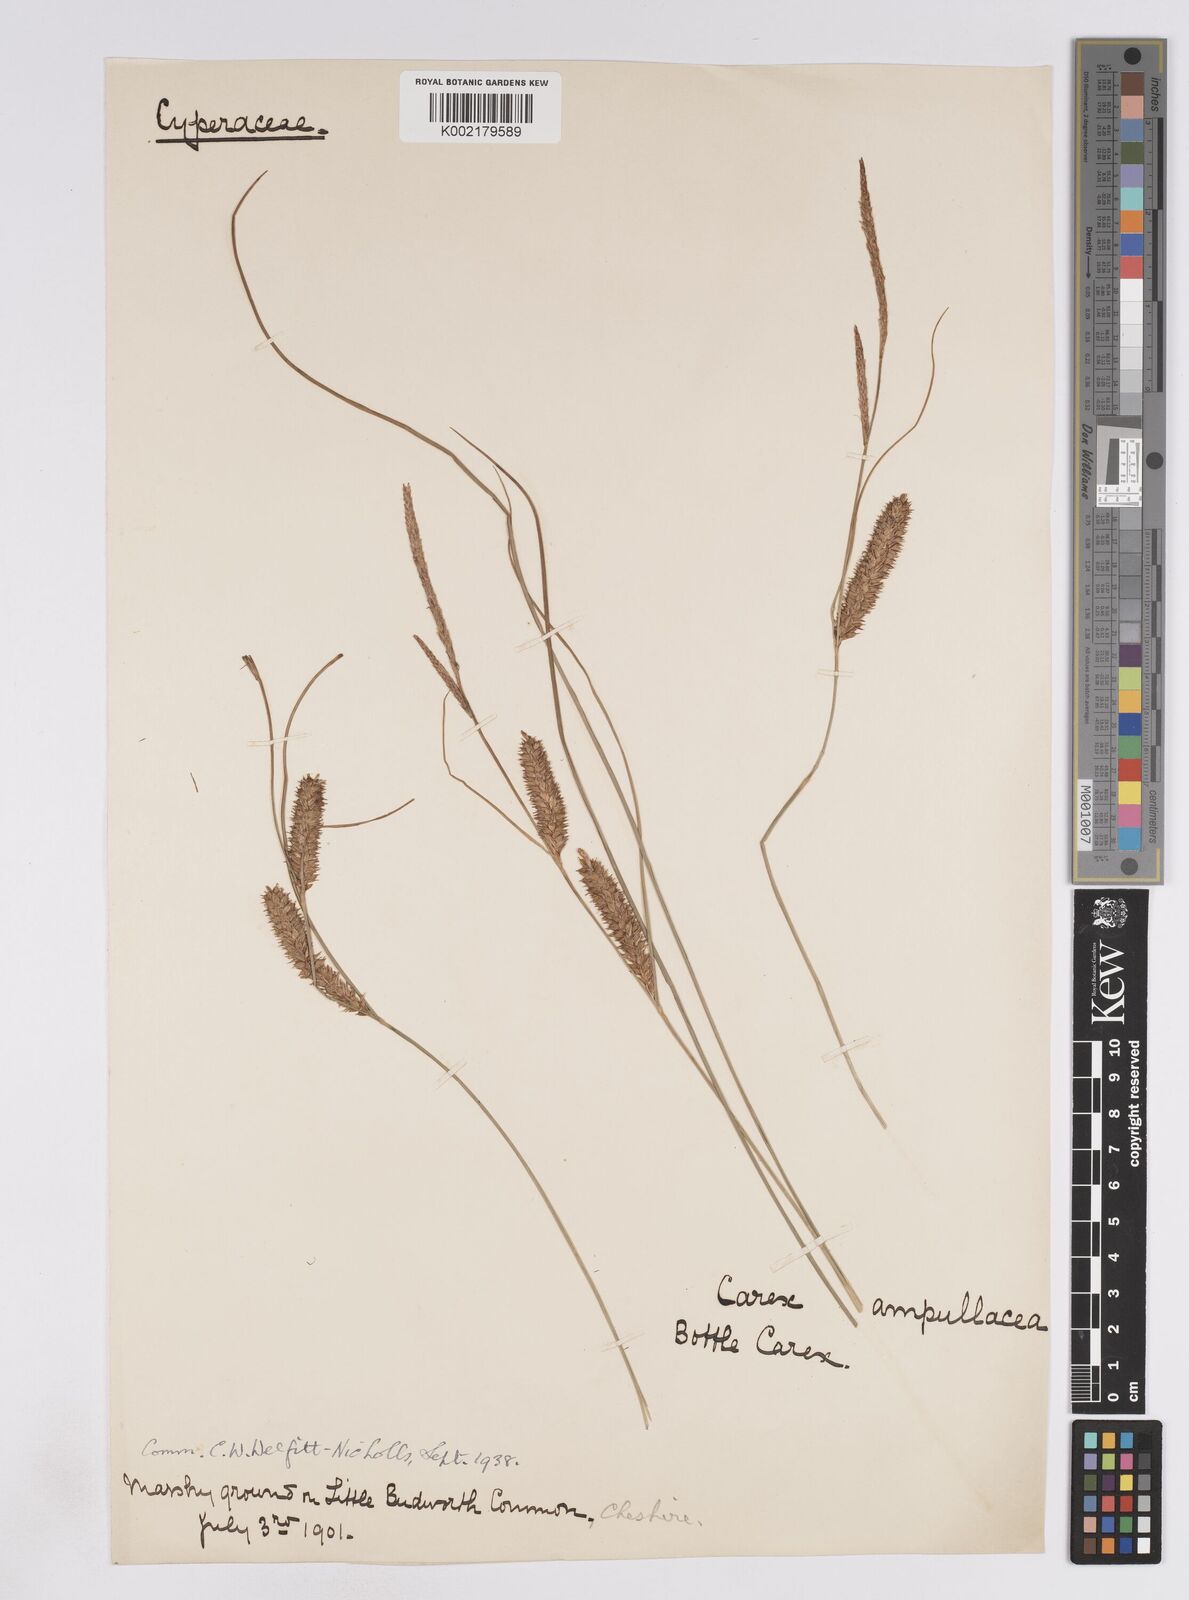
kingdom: Plantae
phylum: Tracheophyta
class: Liliopsida
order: Poales
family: Cyperaceae
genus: Carex
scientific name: Carex rostrata
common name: Bottle sedge
